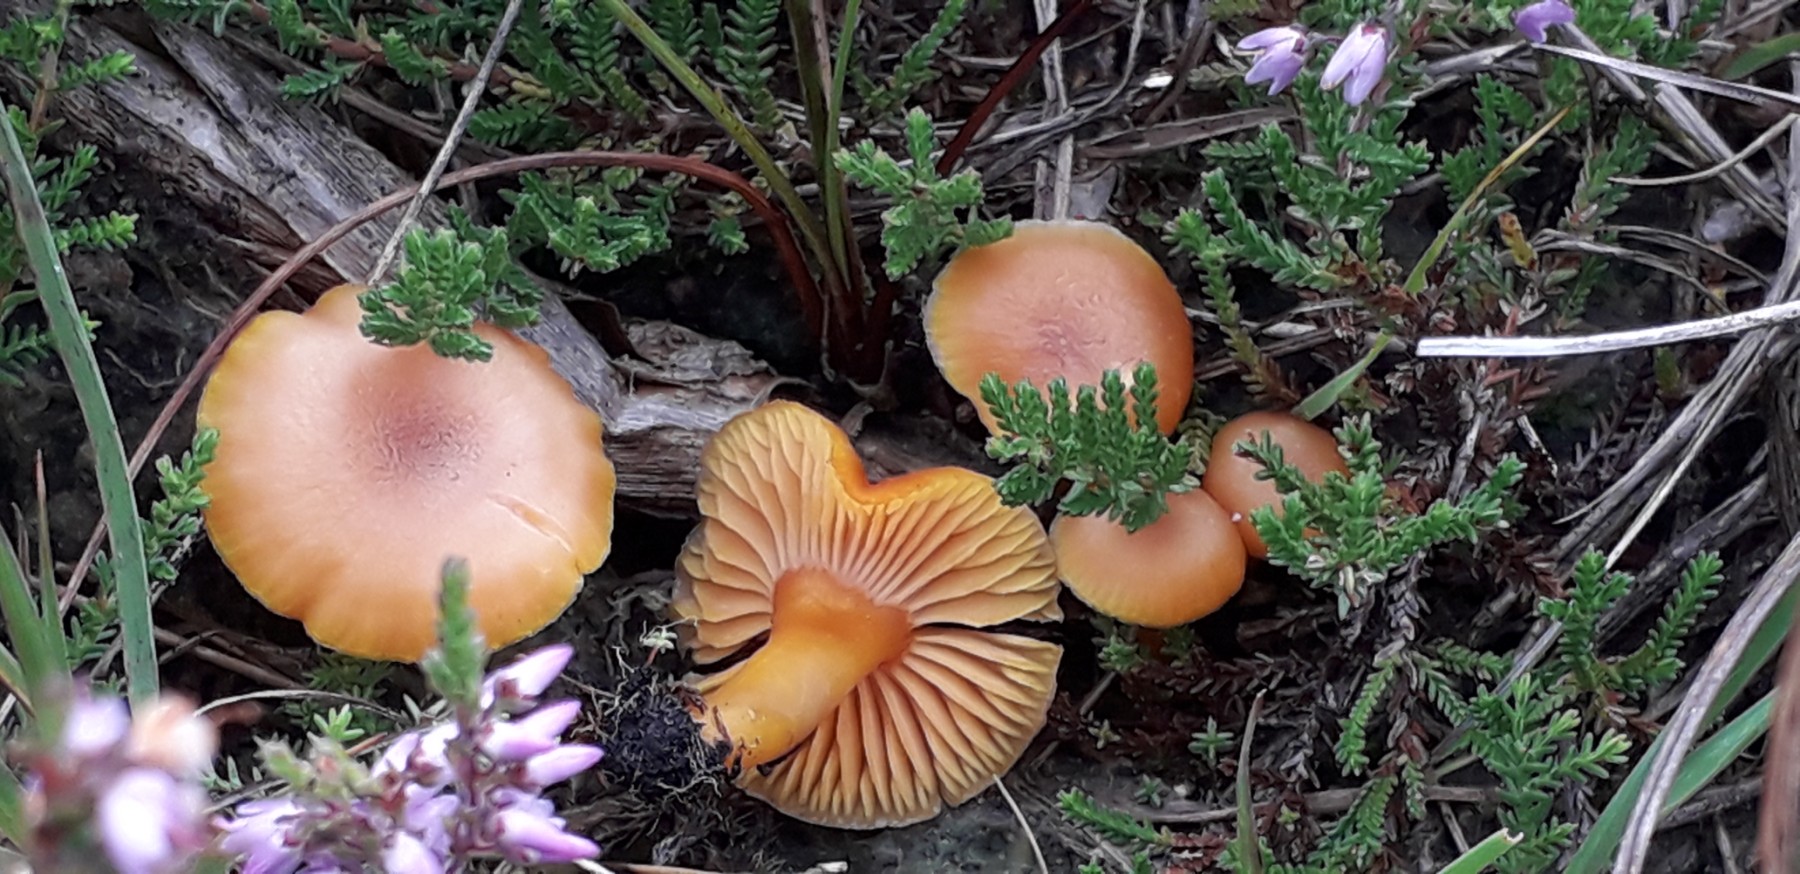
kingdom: Fungi
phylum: Basidiomycota
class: Agaricomycetes
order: Agaricales
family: Hygrophoraceae
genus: Hygrocybe
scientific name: Hygrocybe
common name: vokshat
